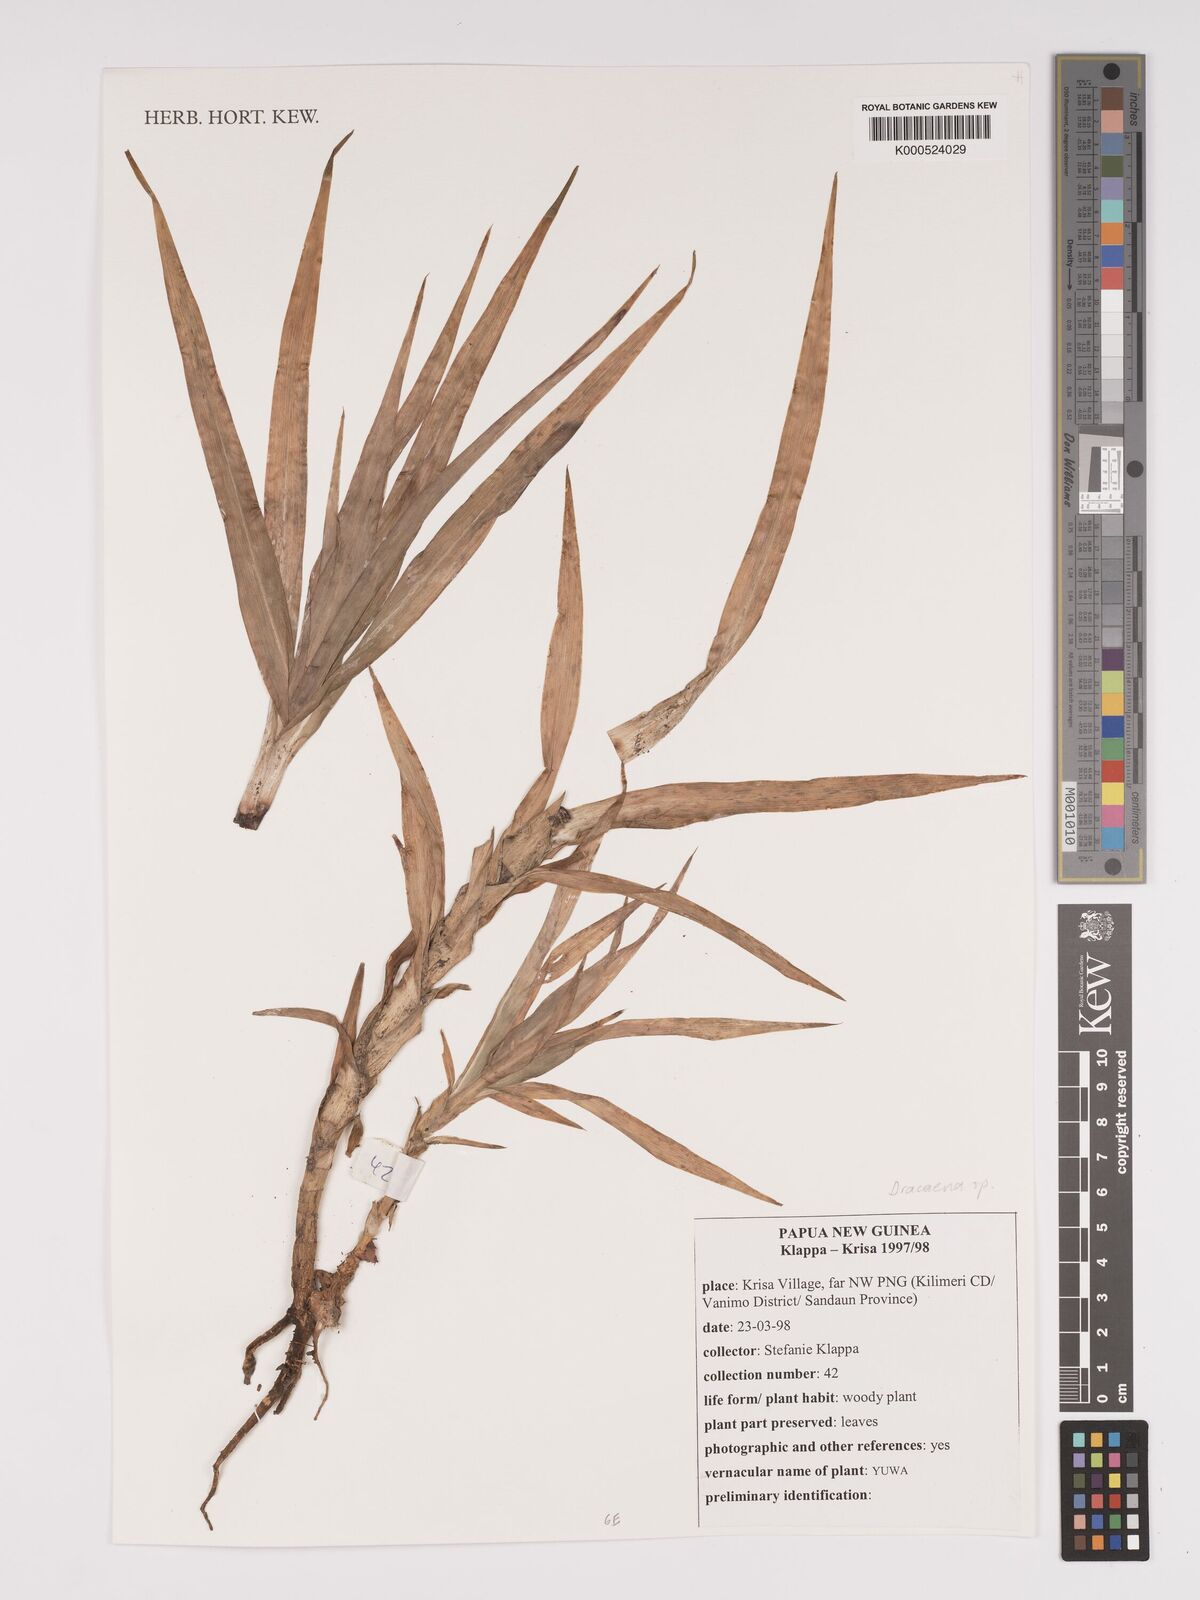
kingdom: Plantae
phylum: Tracheophyta
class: Liliopsida
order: Asparagales
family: Asparagaceae
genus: Dracaena
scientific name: Dracaena
